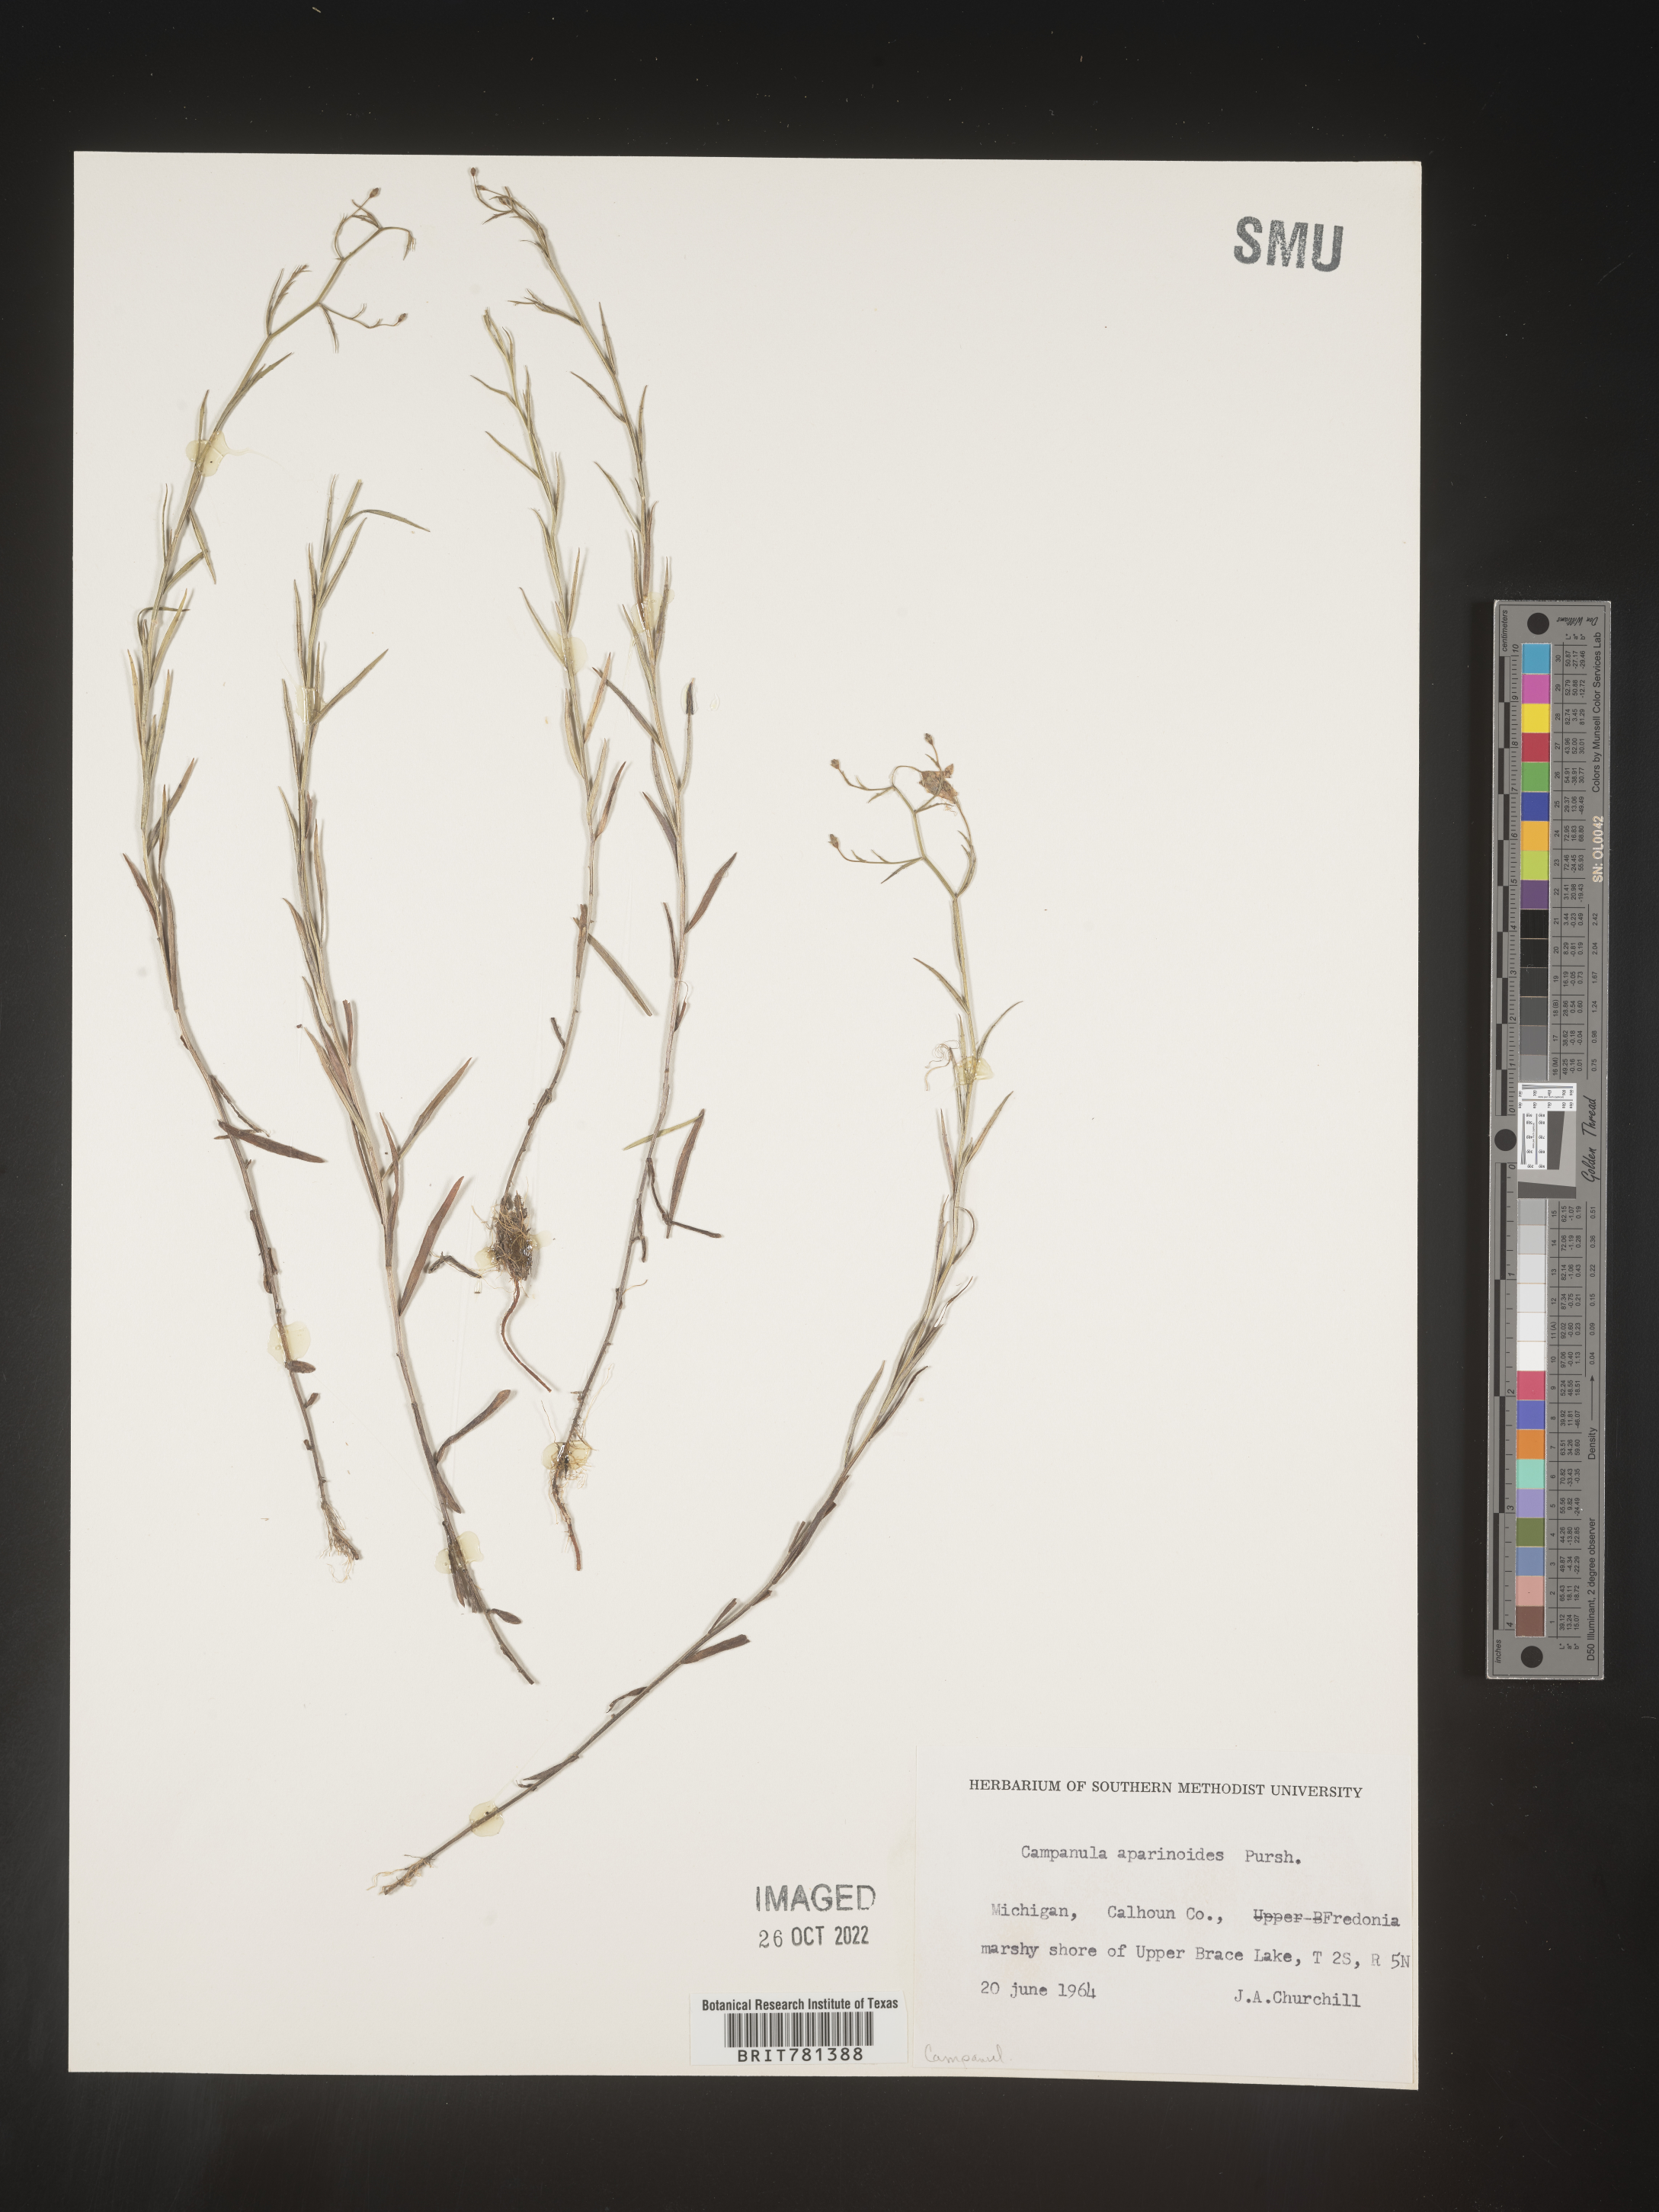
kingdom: Plantae
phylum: Tracheophyta
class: Magnoliopsida
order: Asterales
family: Campanulaceae
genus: Palustricodon
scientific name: Palustricodon aparinoides
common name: Bedstraw bellflower
